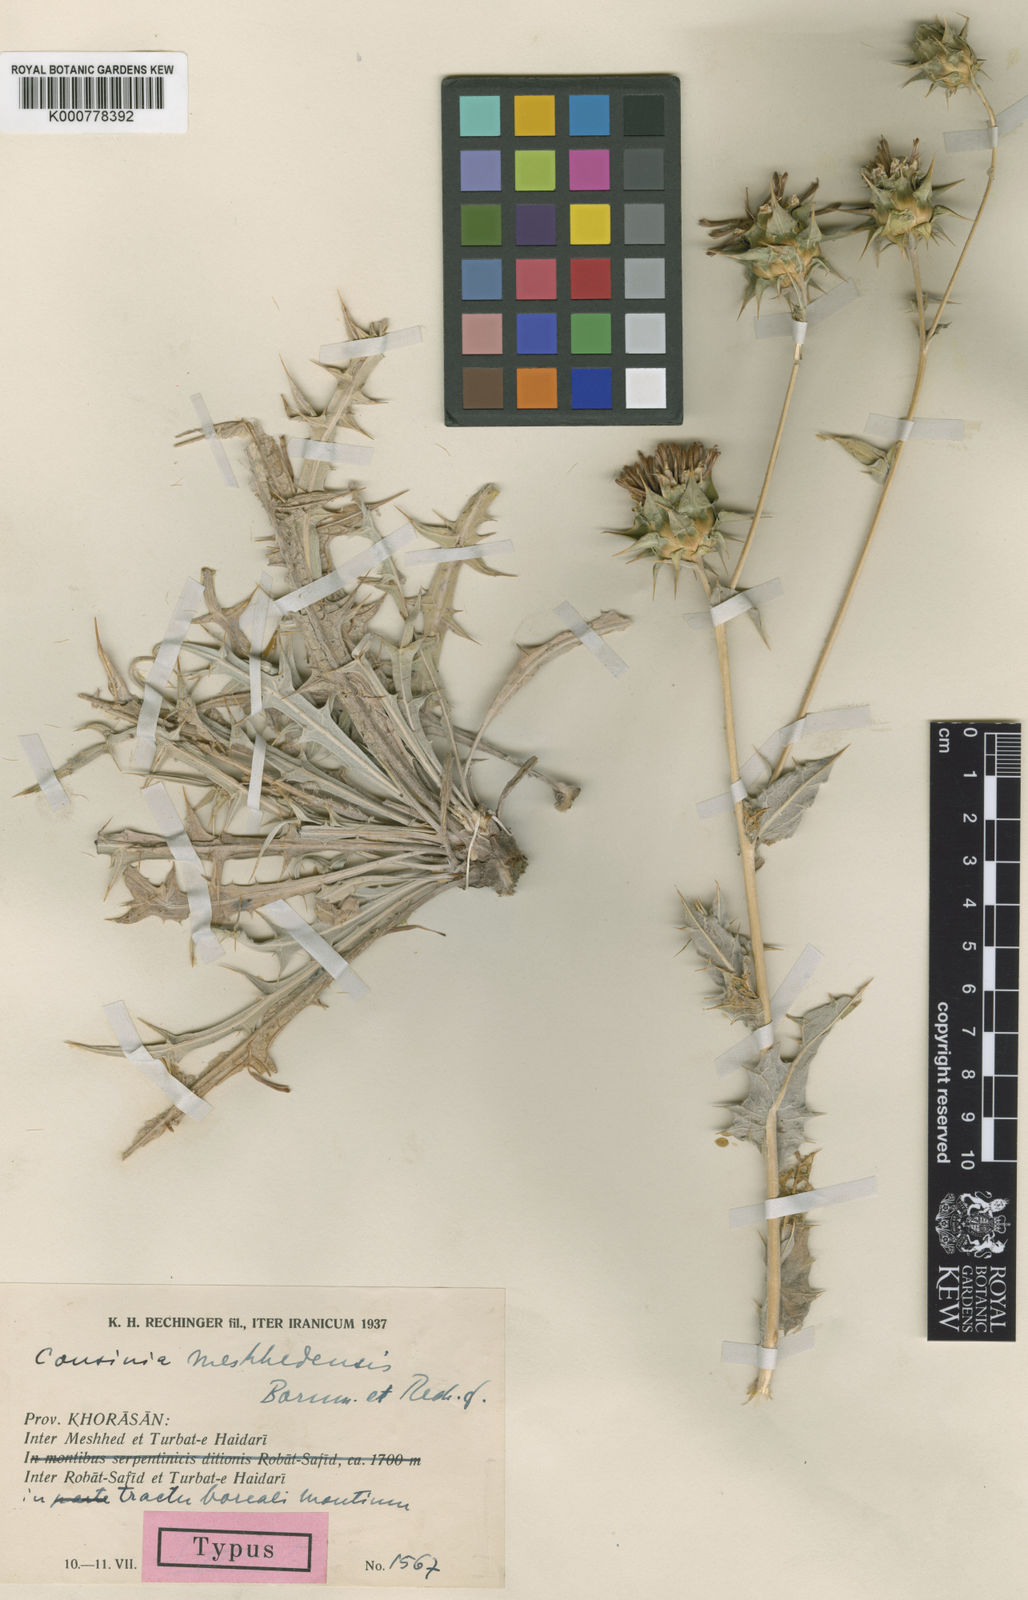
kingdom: Plantae
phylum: Tracheophyta
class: Magnoliopsida
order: Asterales
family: Asteraceae
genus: Cousinia
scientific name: Cousinia meshhedensis
